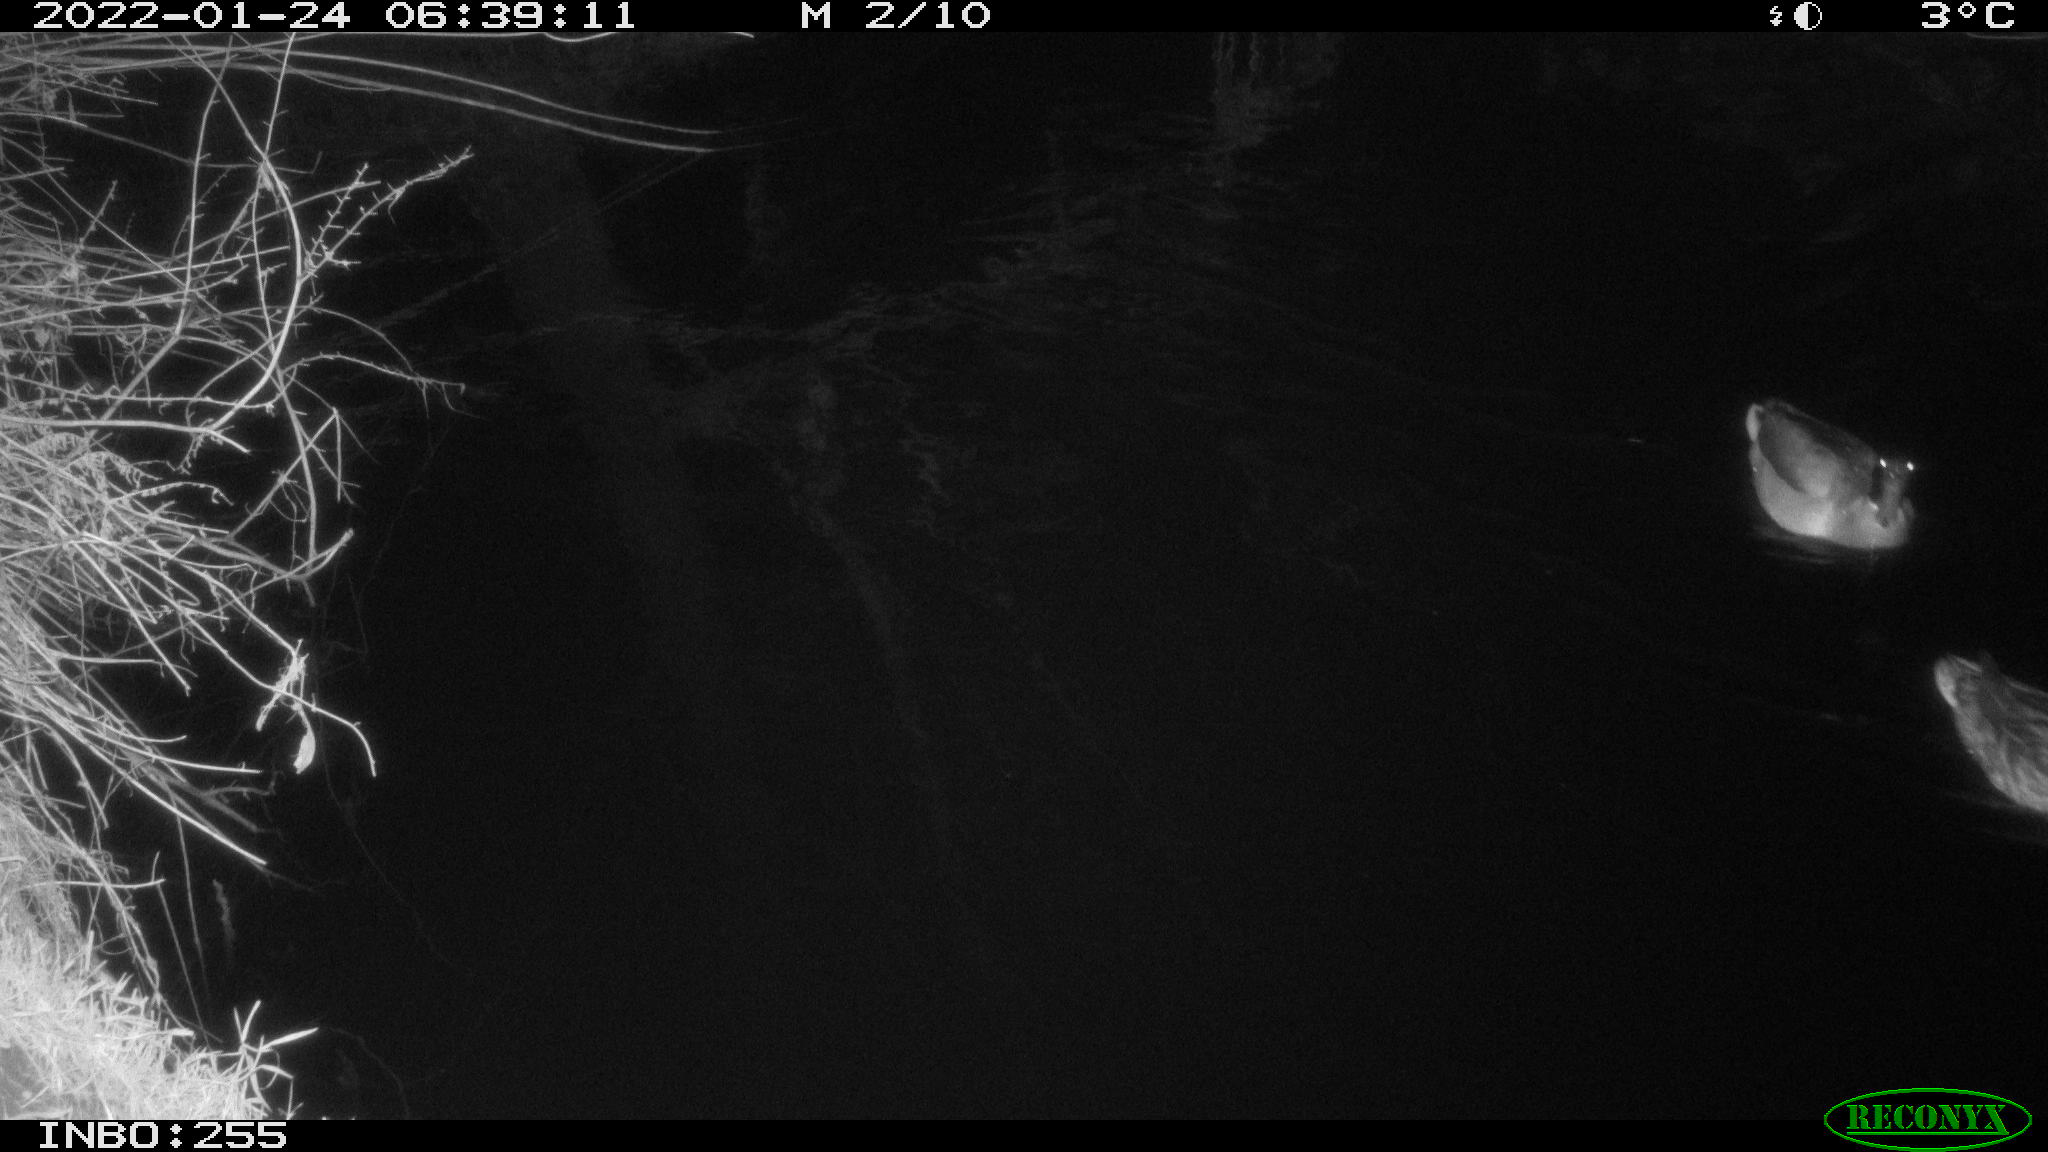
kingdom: Animalia
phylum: Chordata
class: Aves
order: Anseriformes
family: Anatidae
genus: Anas
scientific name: Anas
